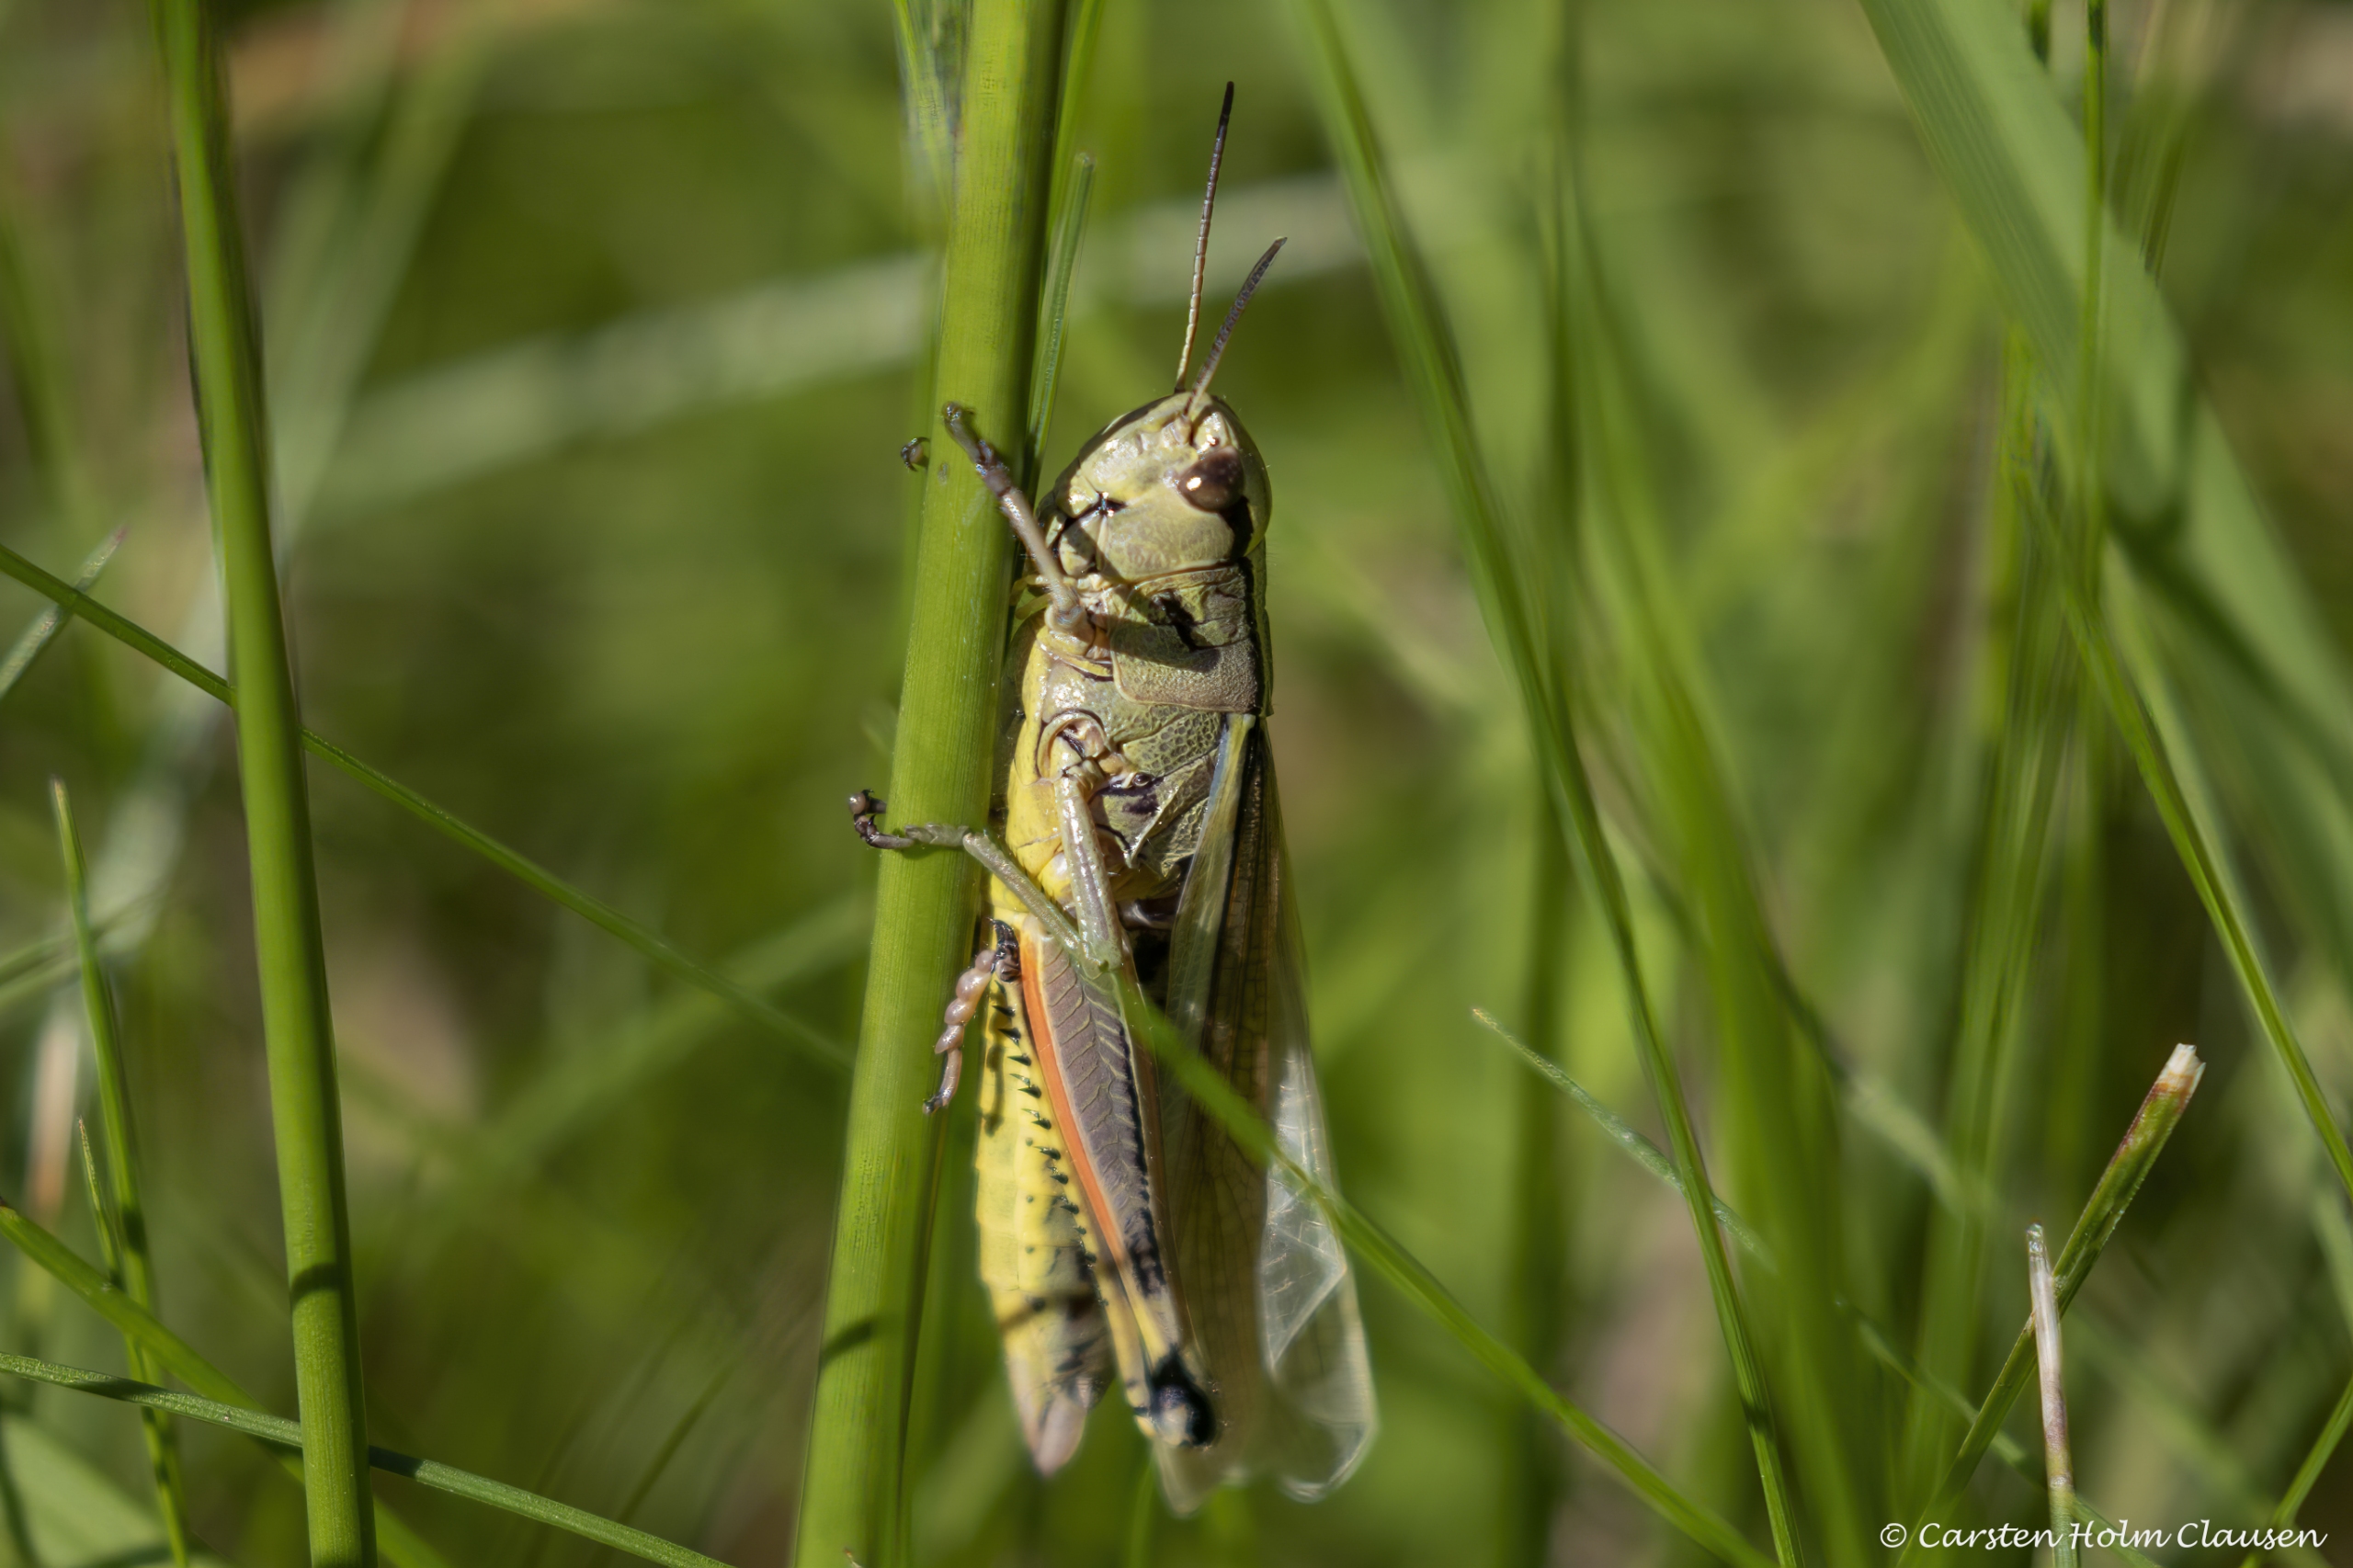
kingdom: Animalia
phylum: Arthropoda
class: Insecta
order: Orthoptera
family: Acrididae
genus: Stethophyma
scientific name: Stethophyma grossum
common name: Sumpgræshoppe
